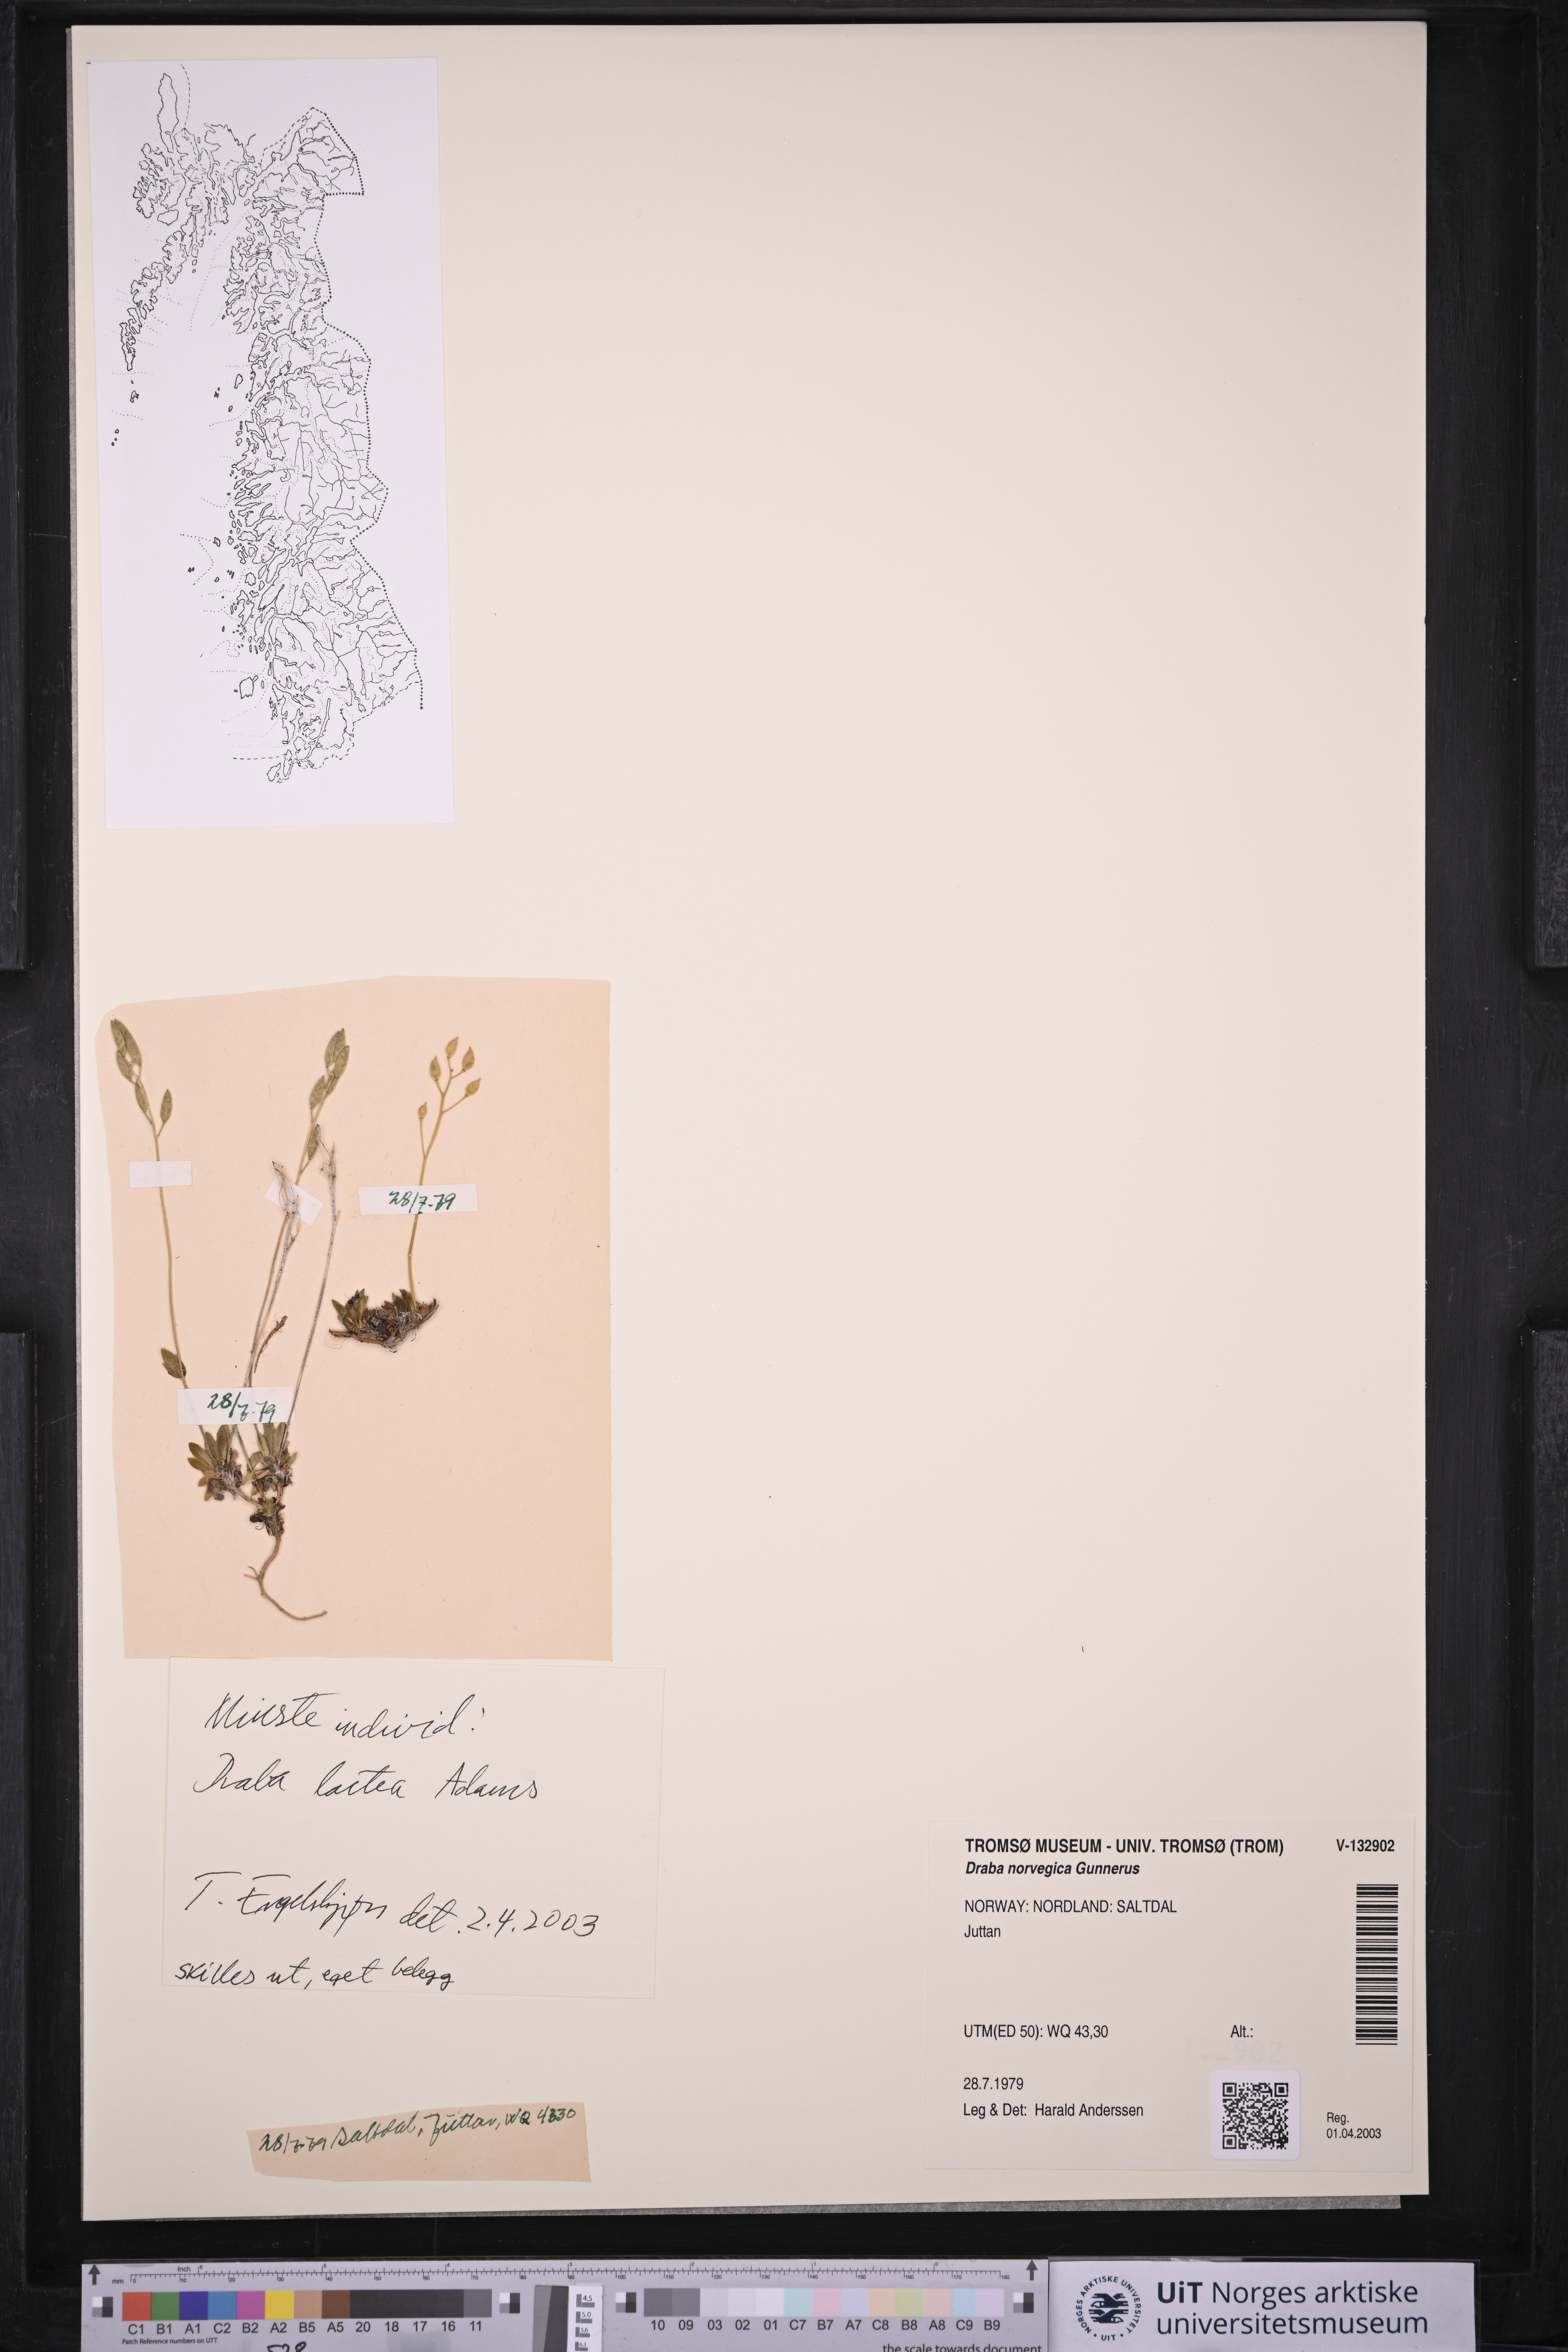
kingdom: Plantae
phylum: Tracheophyta
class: Magnoliopsida
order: Brassicales
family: Brassicaceae
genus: Draba
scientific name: Draba norvegica
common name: Rock whitlowgrass
